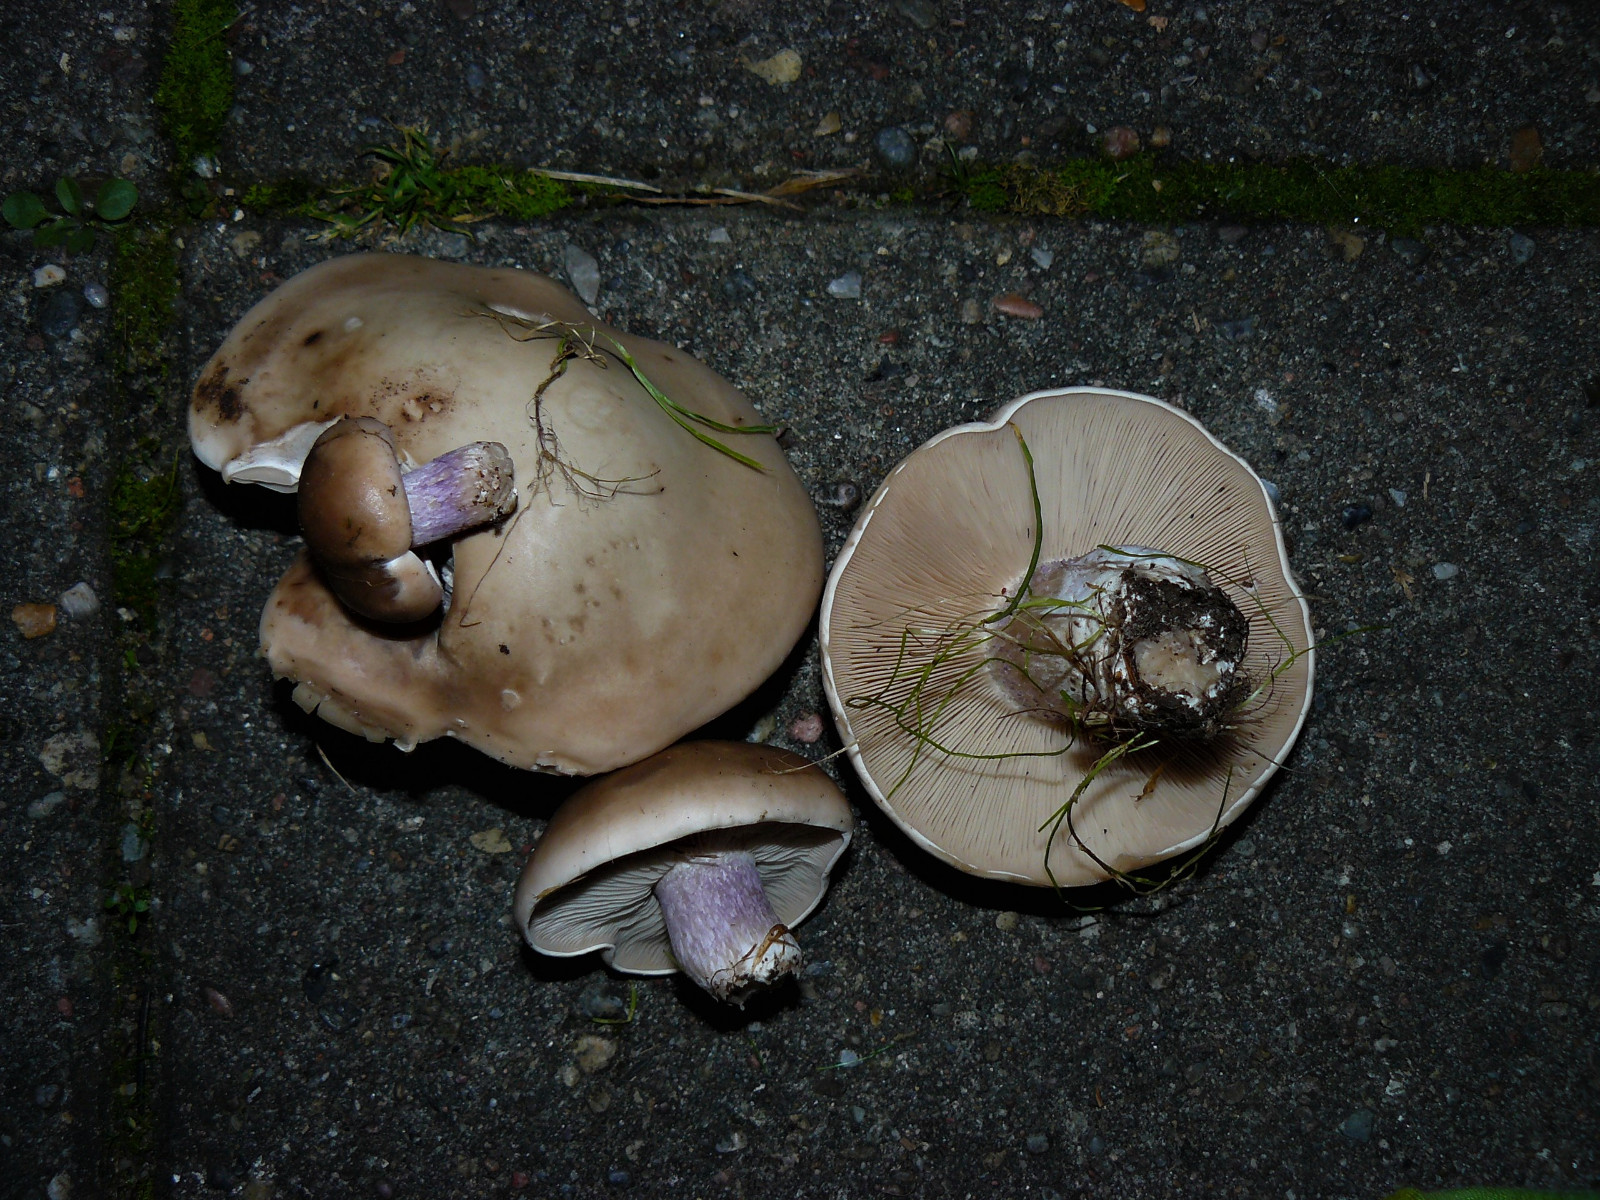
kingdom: Fungi
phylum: Basidiomycota
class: Agaricomycetes
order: Agaricales
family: Tricholomataceae
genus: Lepista
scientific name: Lepista personata
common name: bleg hekseringshat
